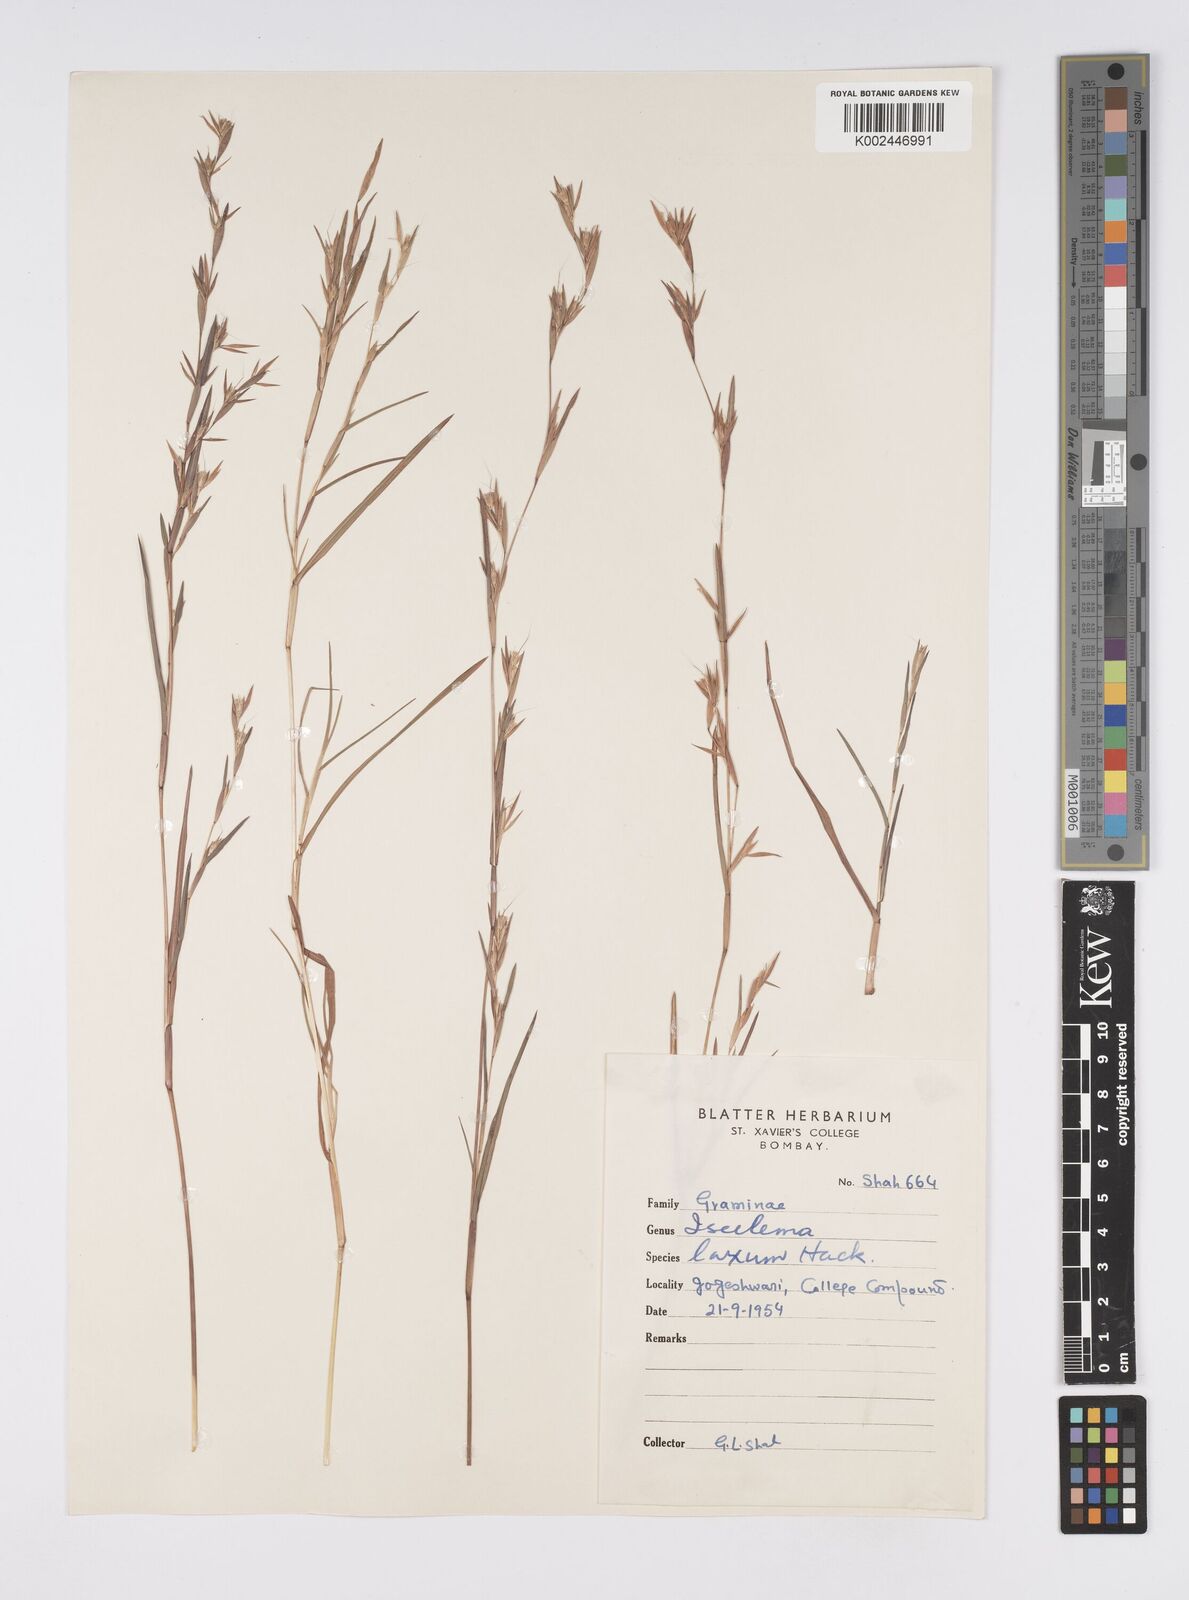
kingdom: Plantae
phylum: Tracheophyta
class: Liliopsida
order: Poales
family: Poaceae
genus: Iseilema
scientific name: Iseilema prostratum
